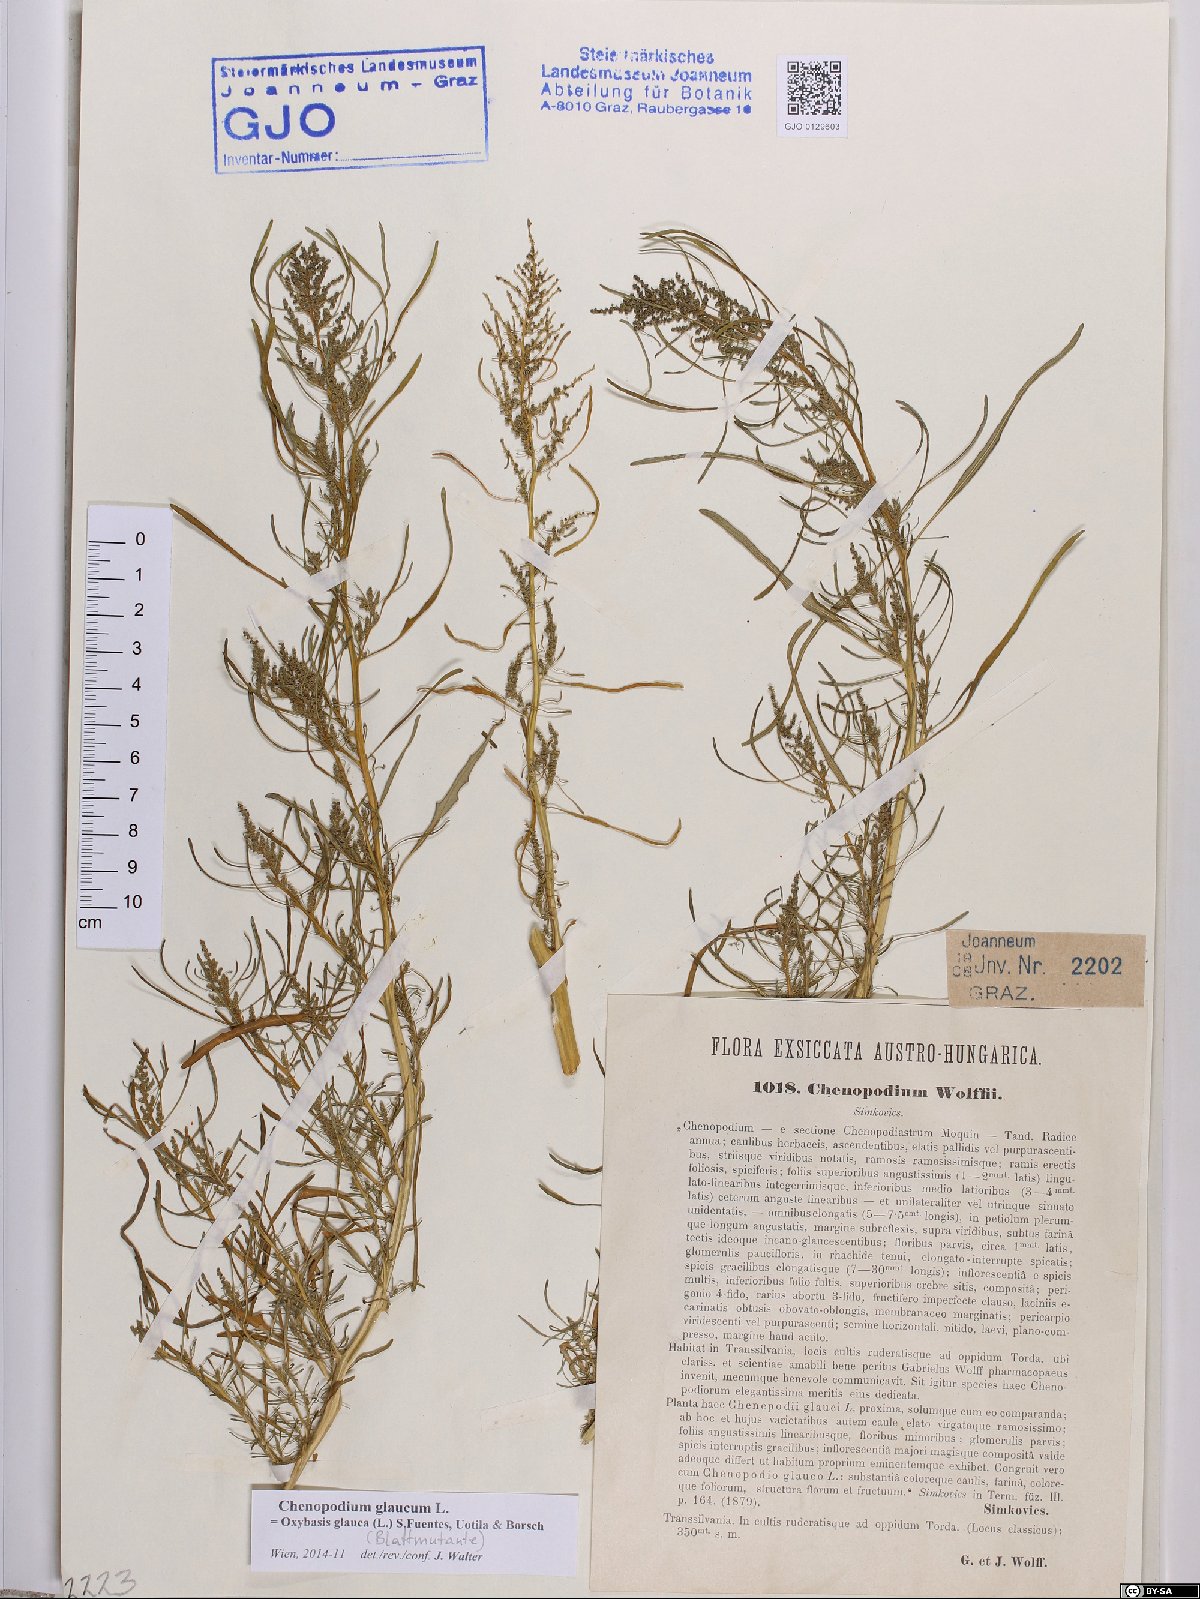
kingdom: Plantae
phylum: Tracheophyta
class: Magnoliopsida
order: Caryophyllales
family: Amaranthaceae
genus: Oxybasis
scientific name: Oxybasis glauca
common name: Glaucous goosefoot
